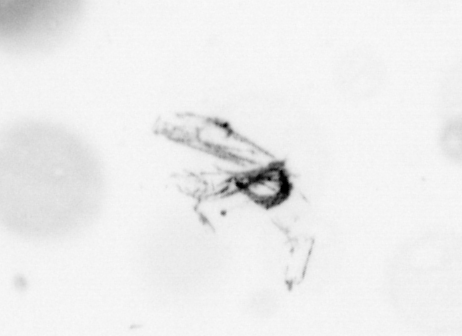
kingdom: Animalia
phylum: Arthropoda
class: Copepoda
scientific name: Copepoda
